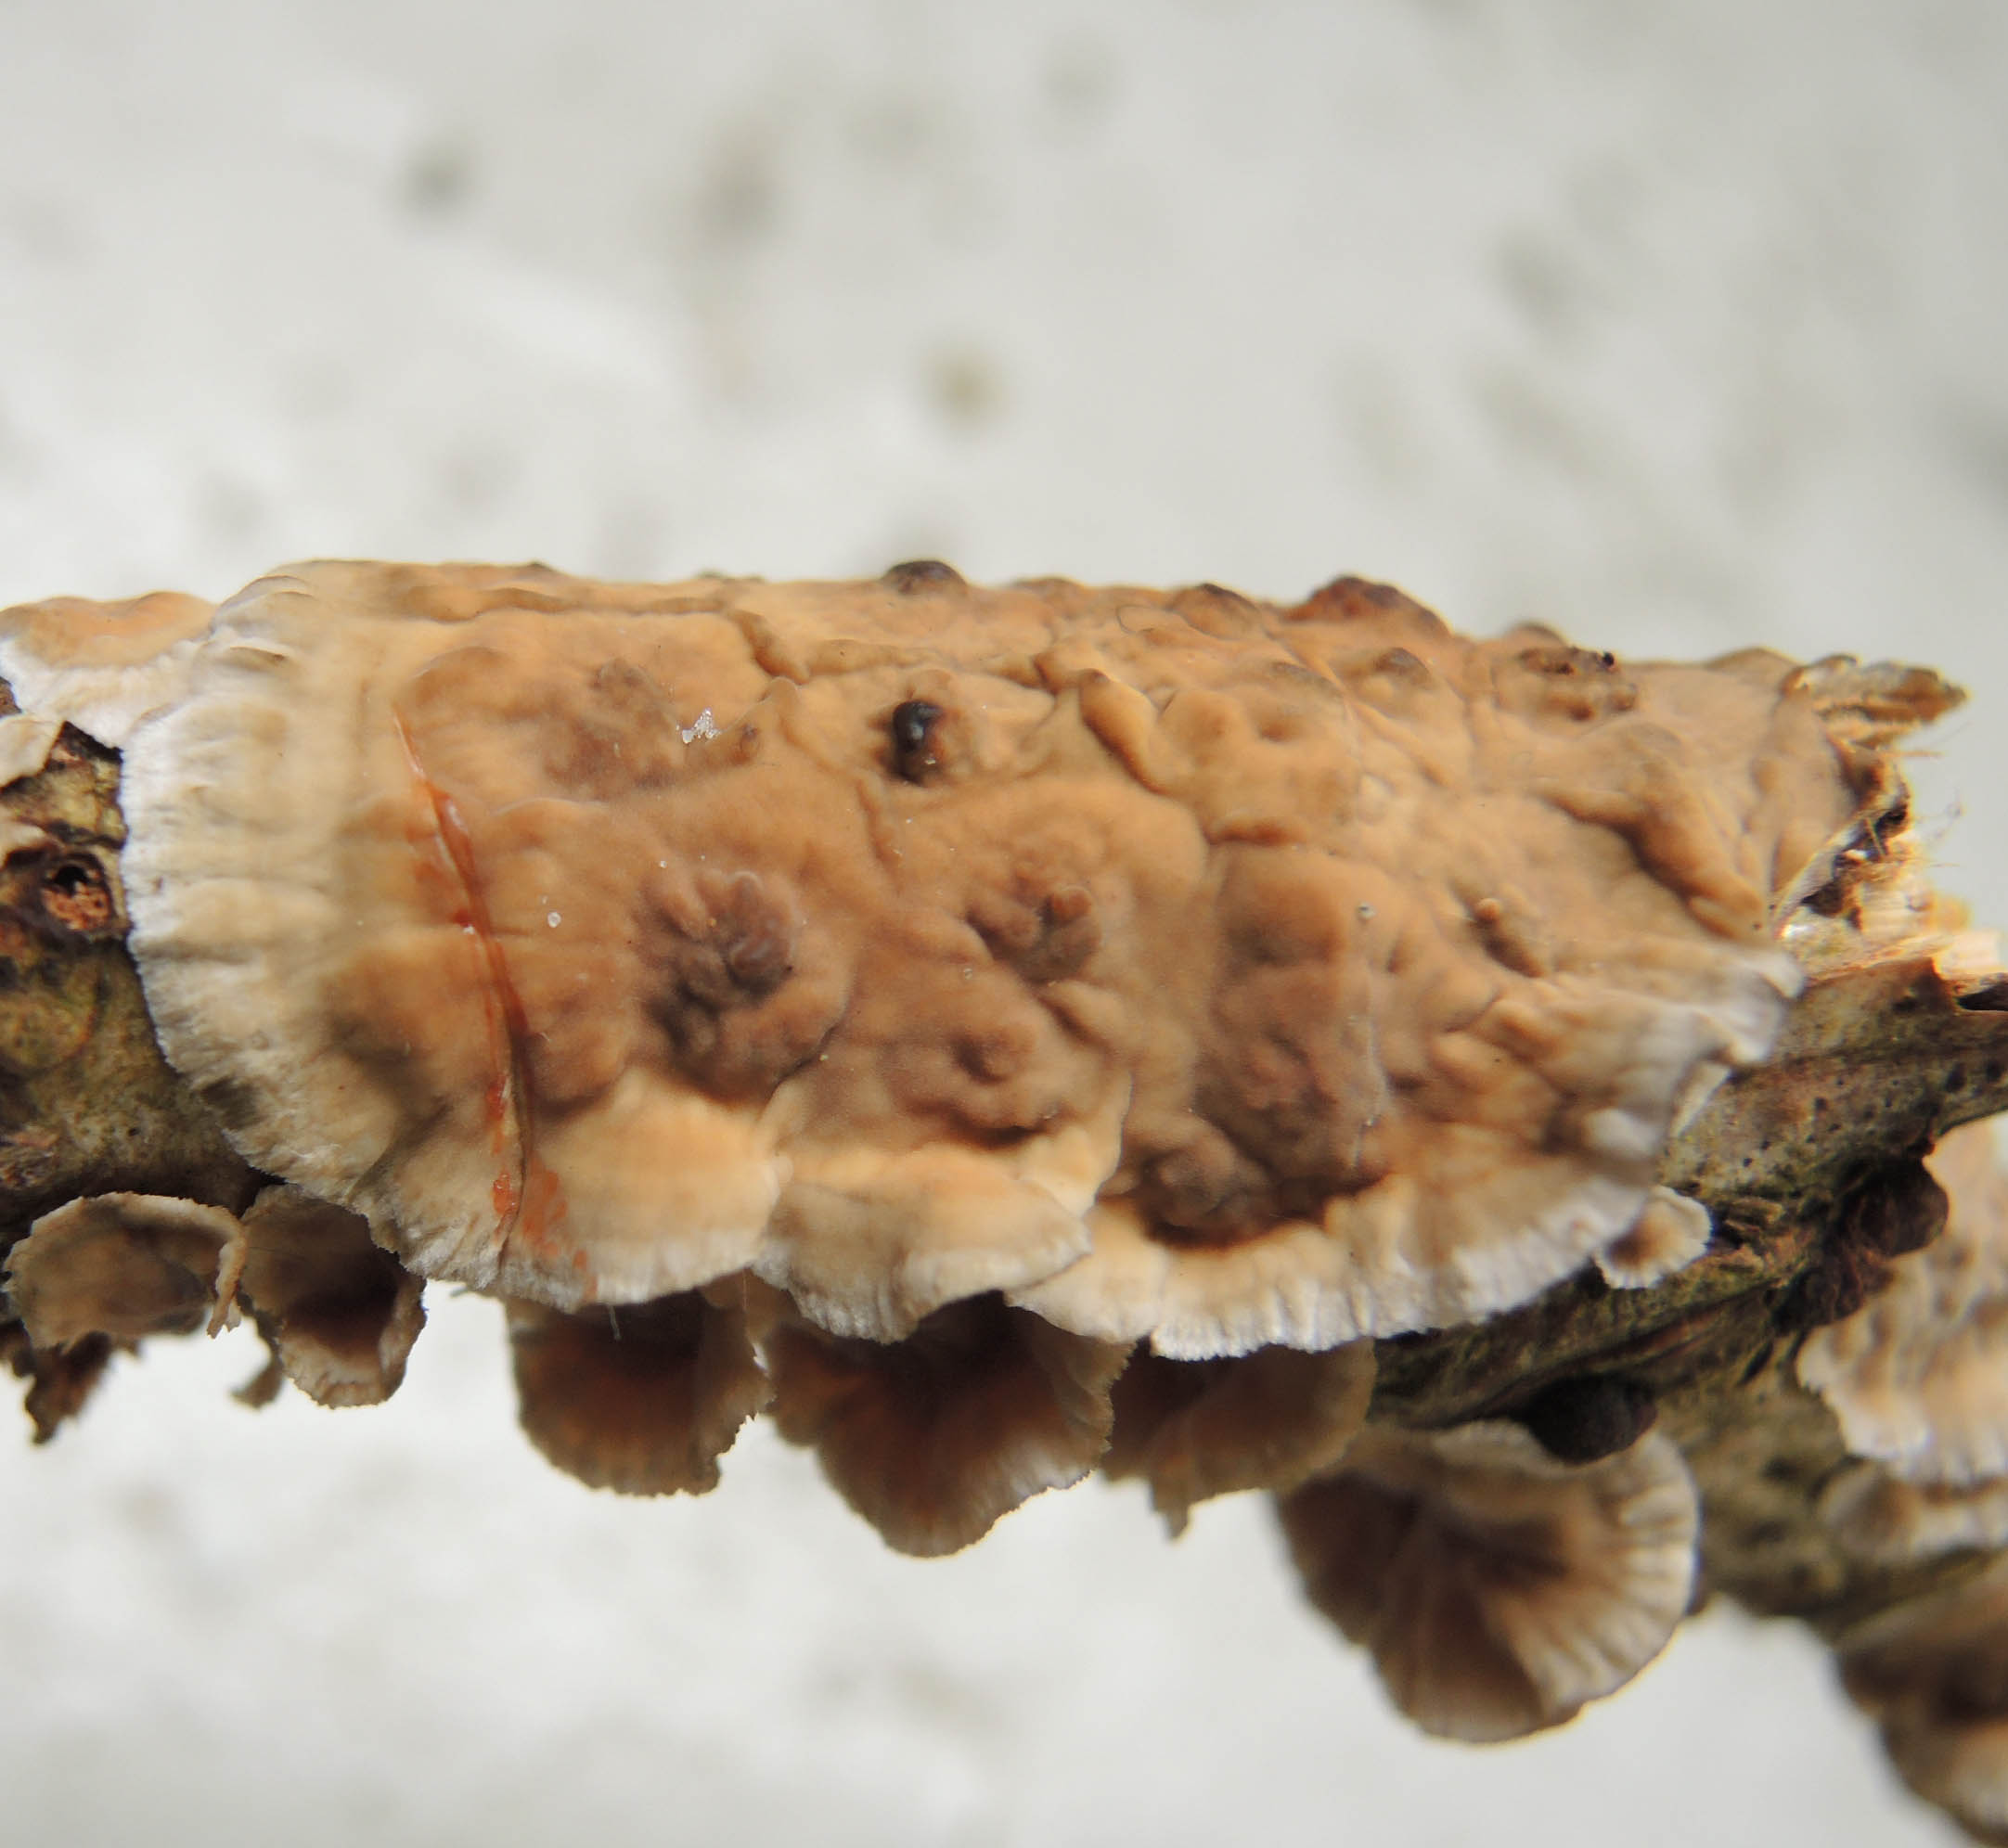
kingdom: Fungi
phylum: Basidiomycota
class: Agaricomycetes
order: Russulales
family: Stereaceae
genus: Stereum
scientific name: Stereum gausapatum
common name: tynd lædersvamp
